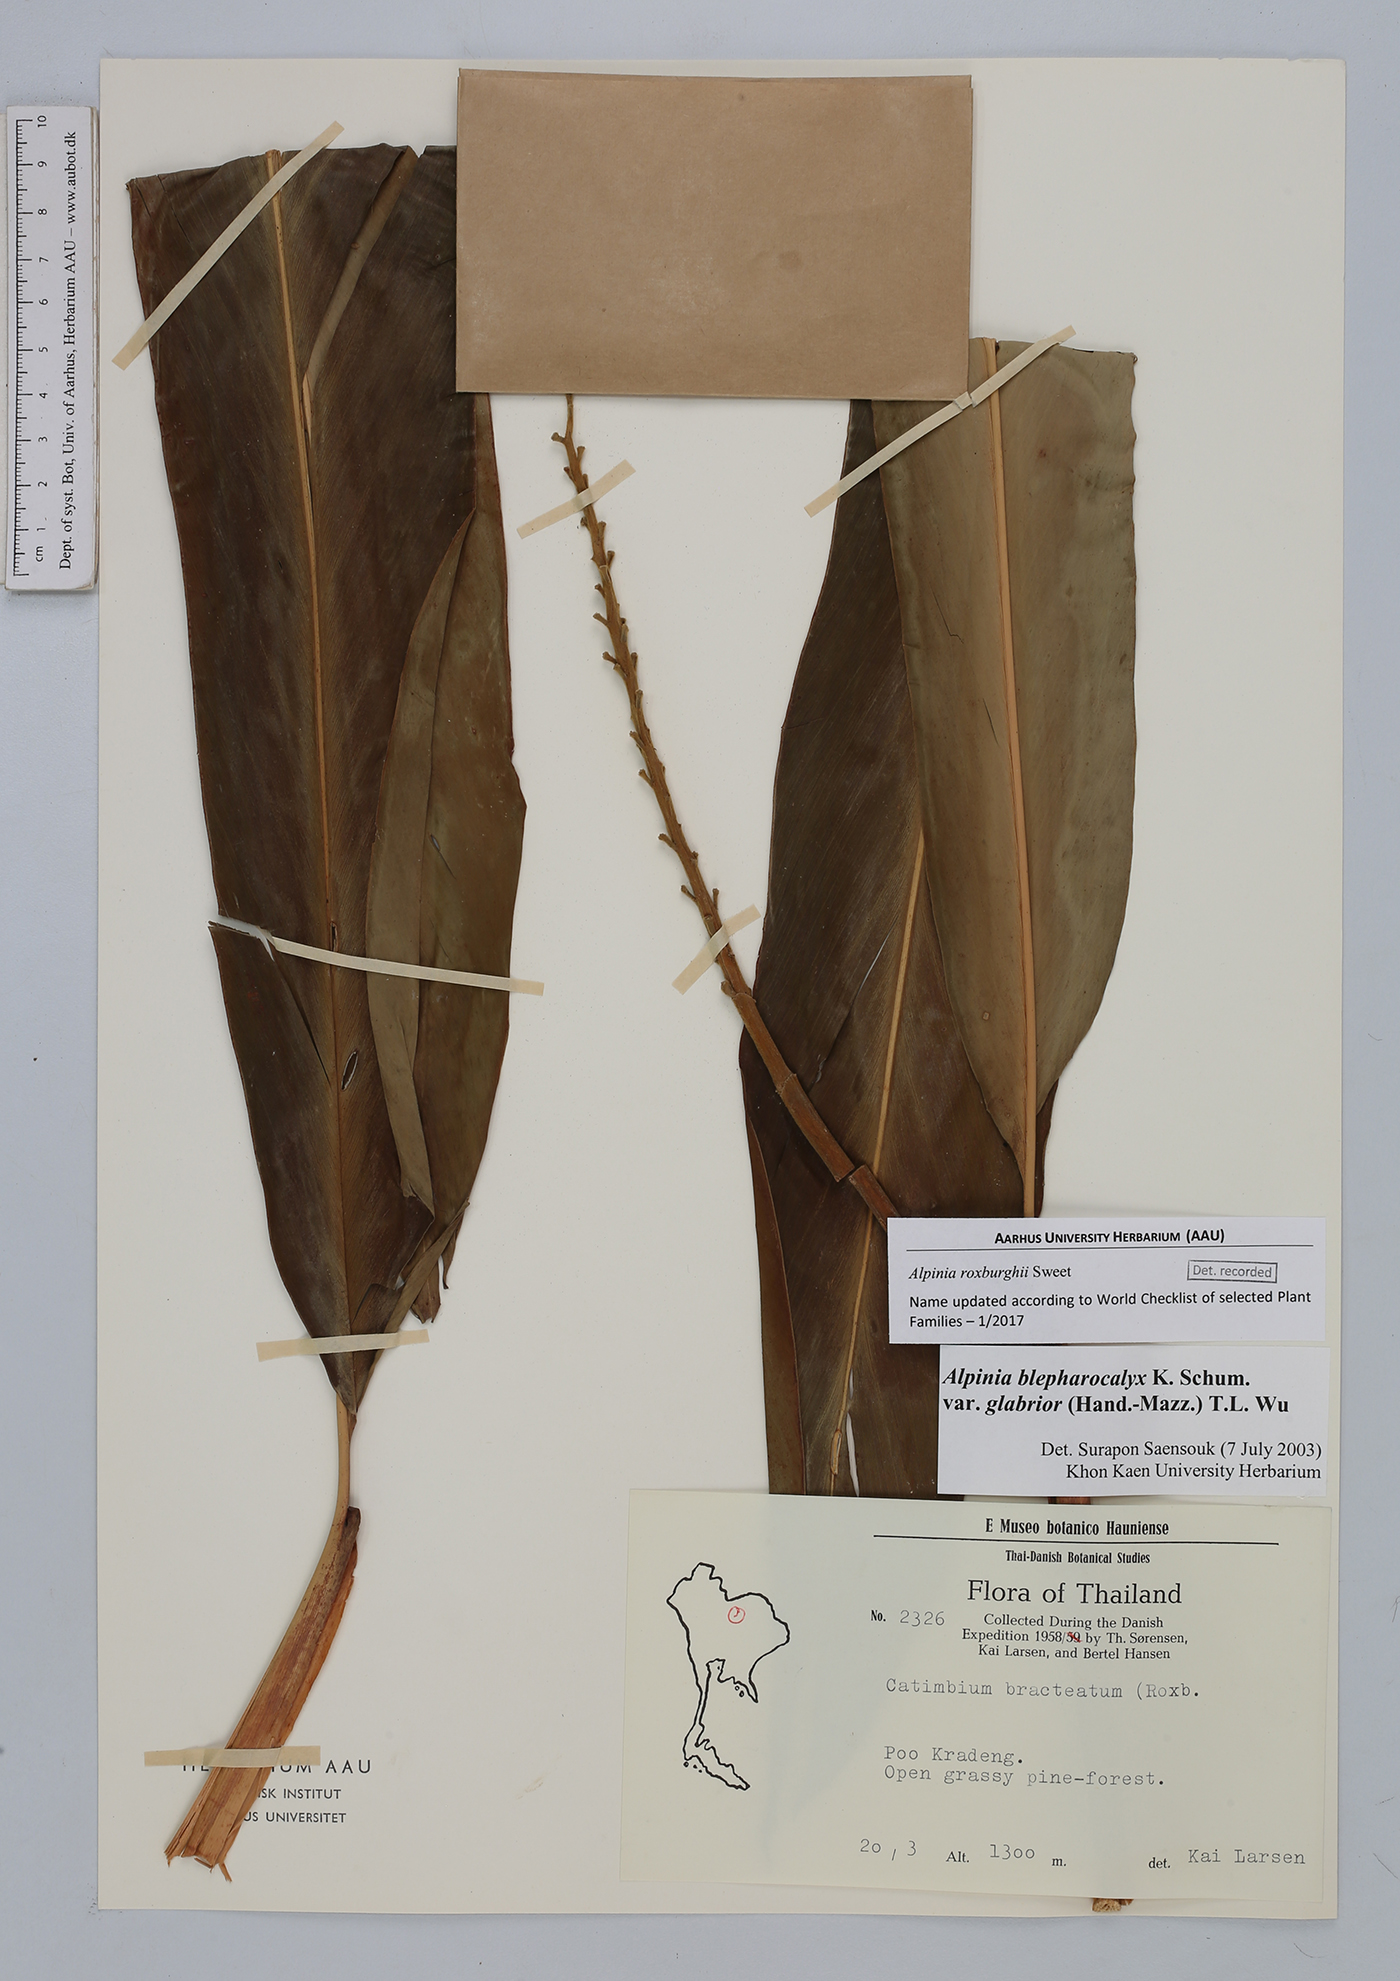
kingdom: Plantae
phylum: Tracheophyta
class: Liliopsida
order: Zingiberales
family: Zingiberaceae
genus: Alpinia
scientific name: Alpinia roxburghii
